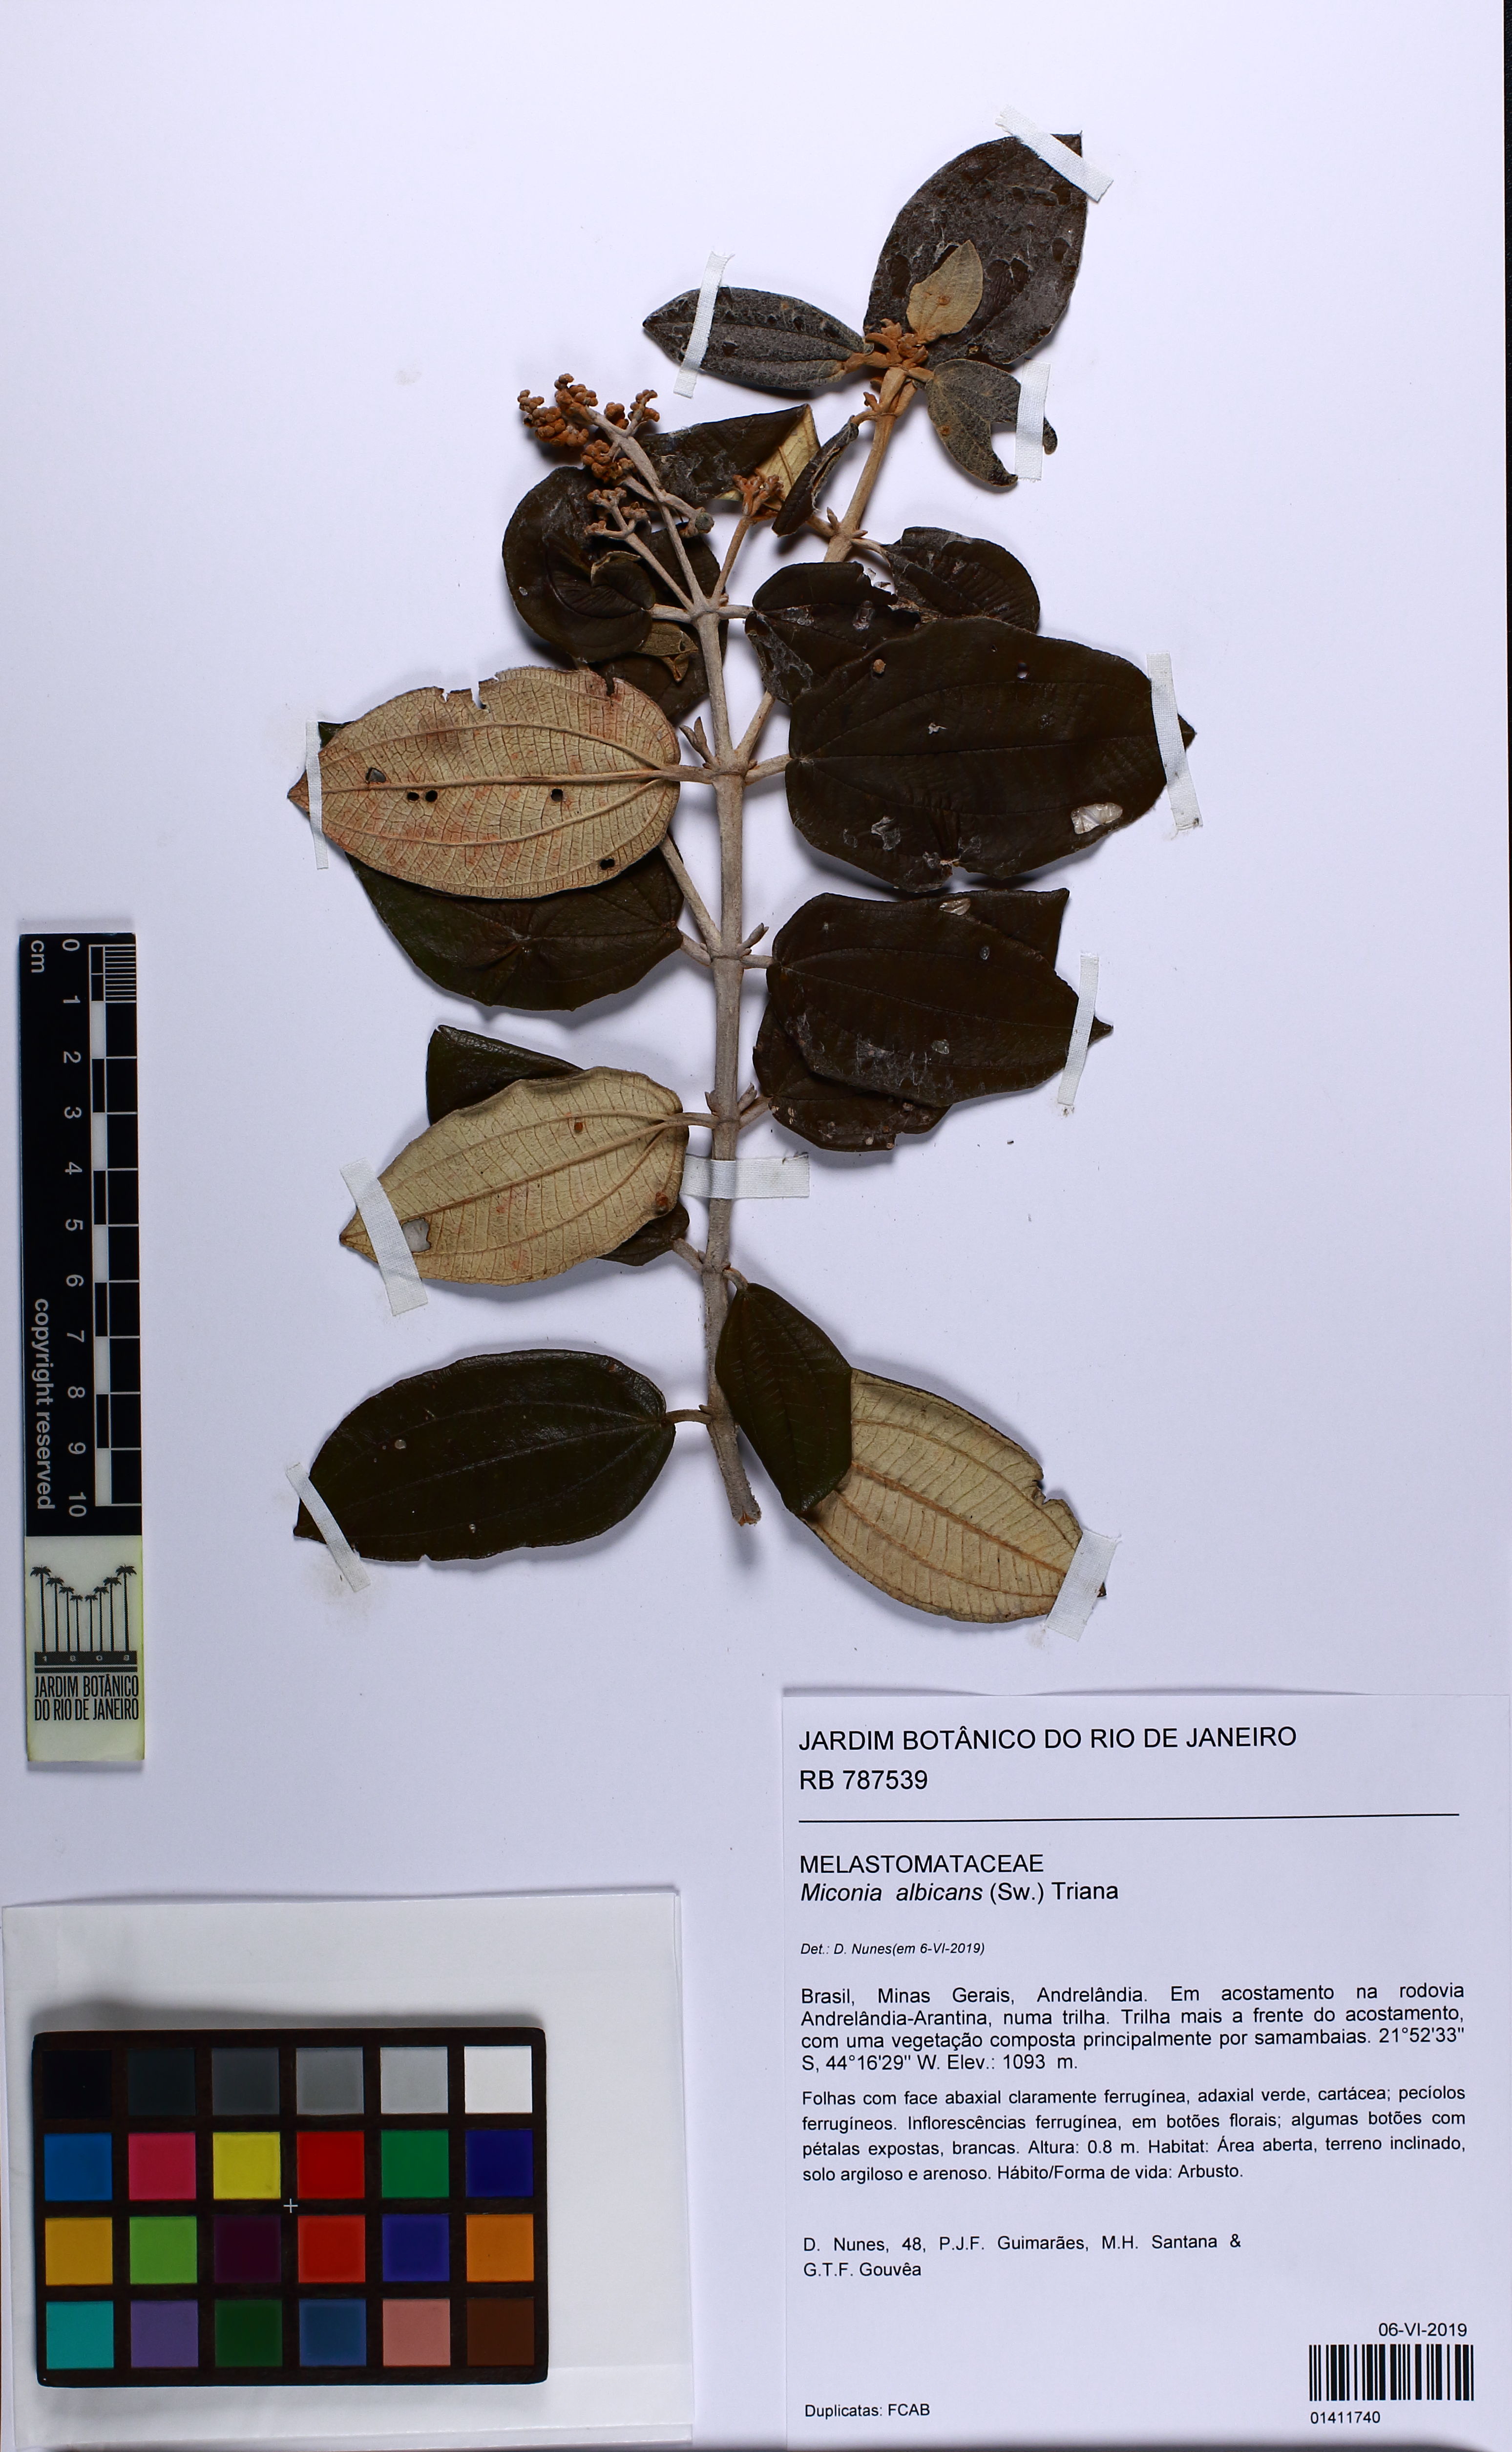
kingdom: Plantae
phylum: Tracheophyta
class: Magnoliopsida
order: Myrtales
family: Melastomataceae
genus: Miconia
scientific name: Miconia albicans
